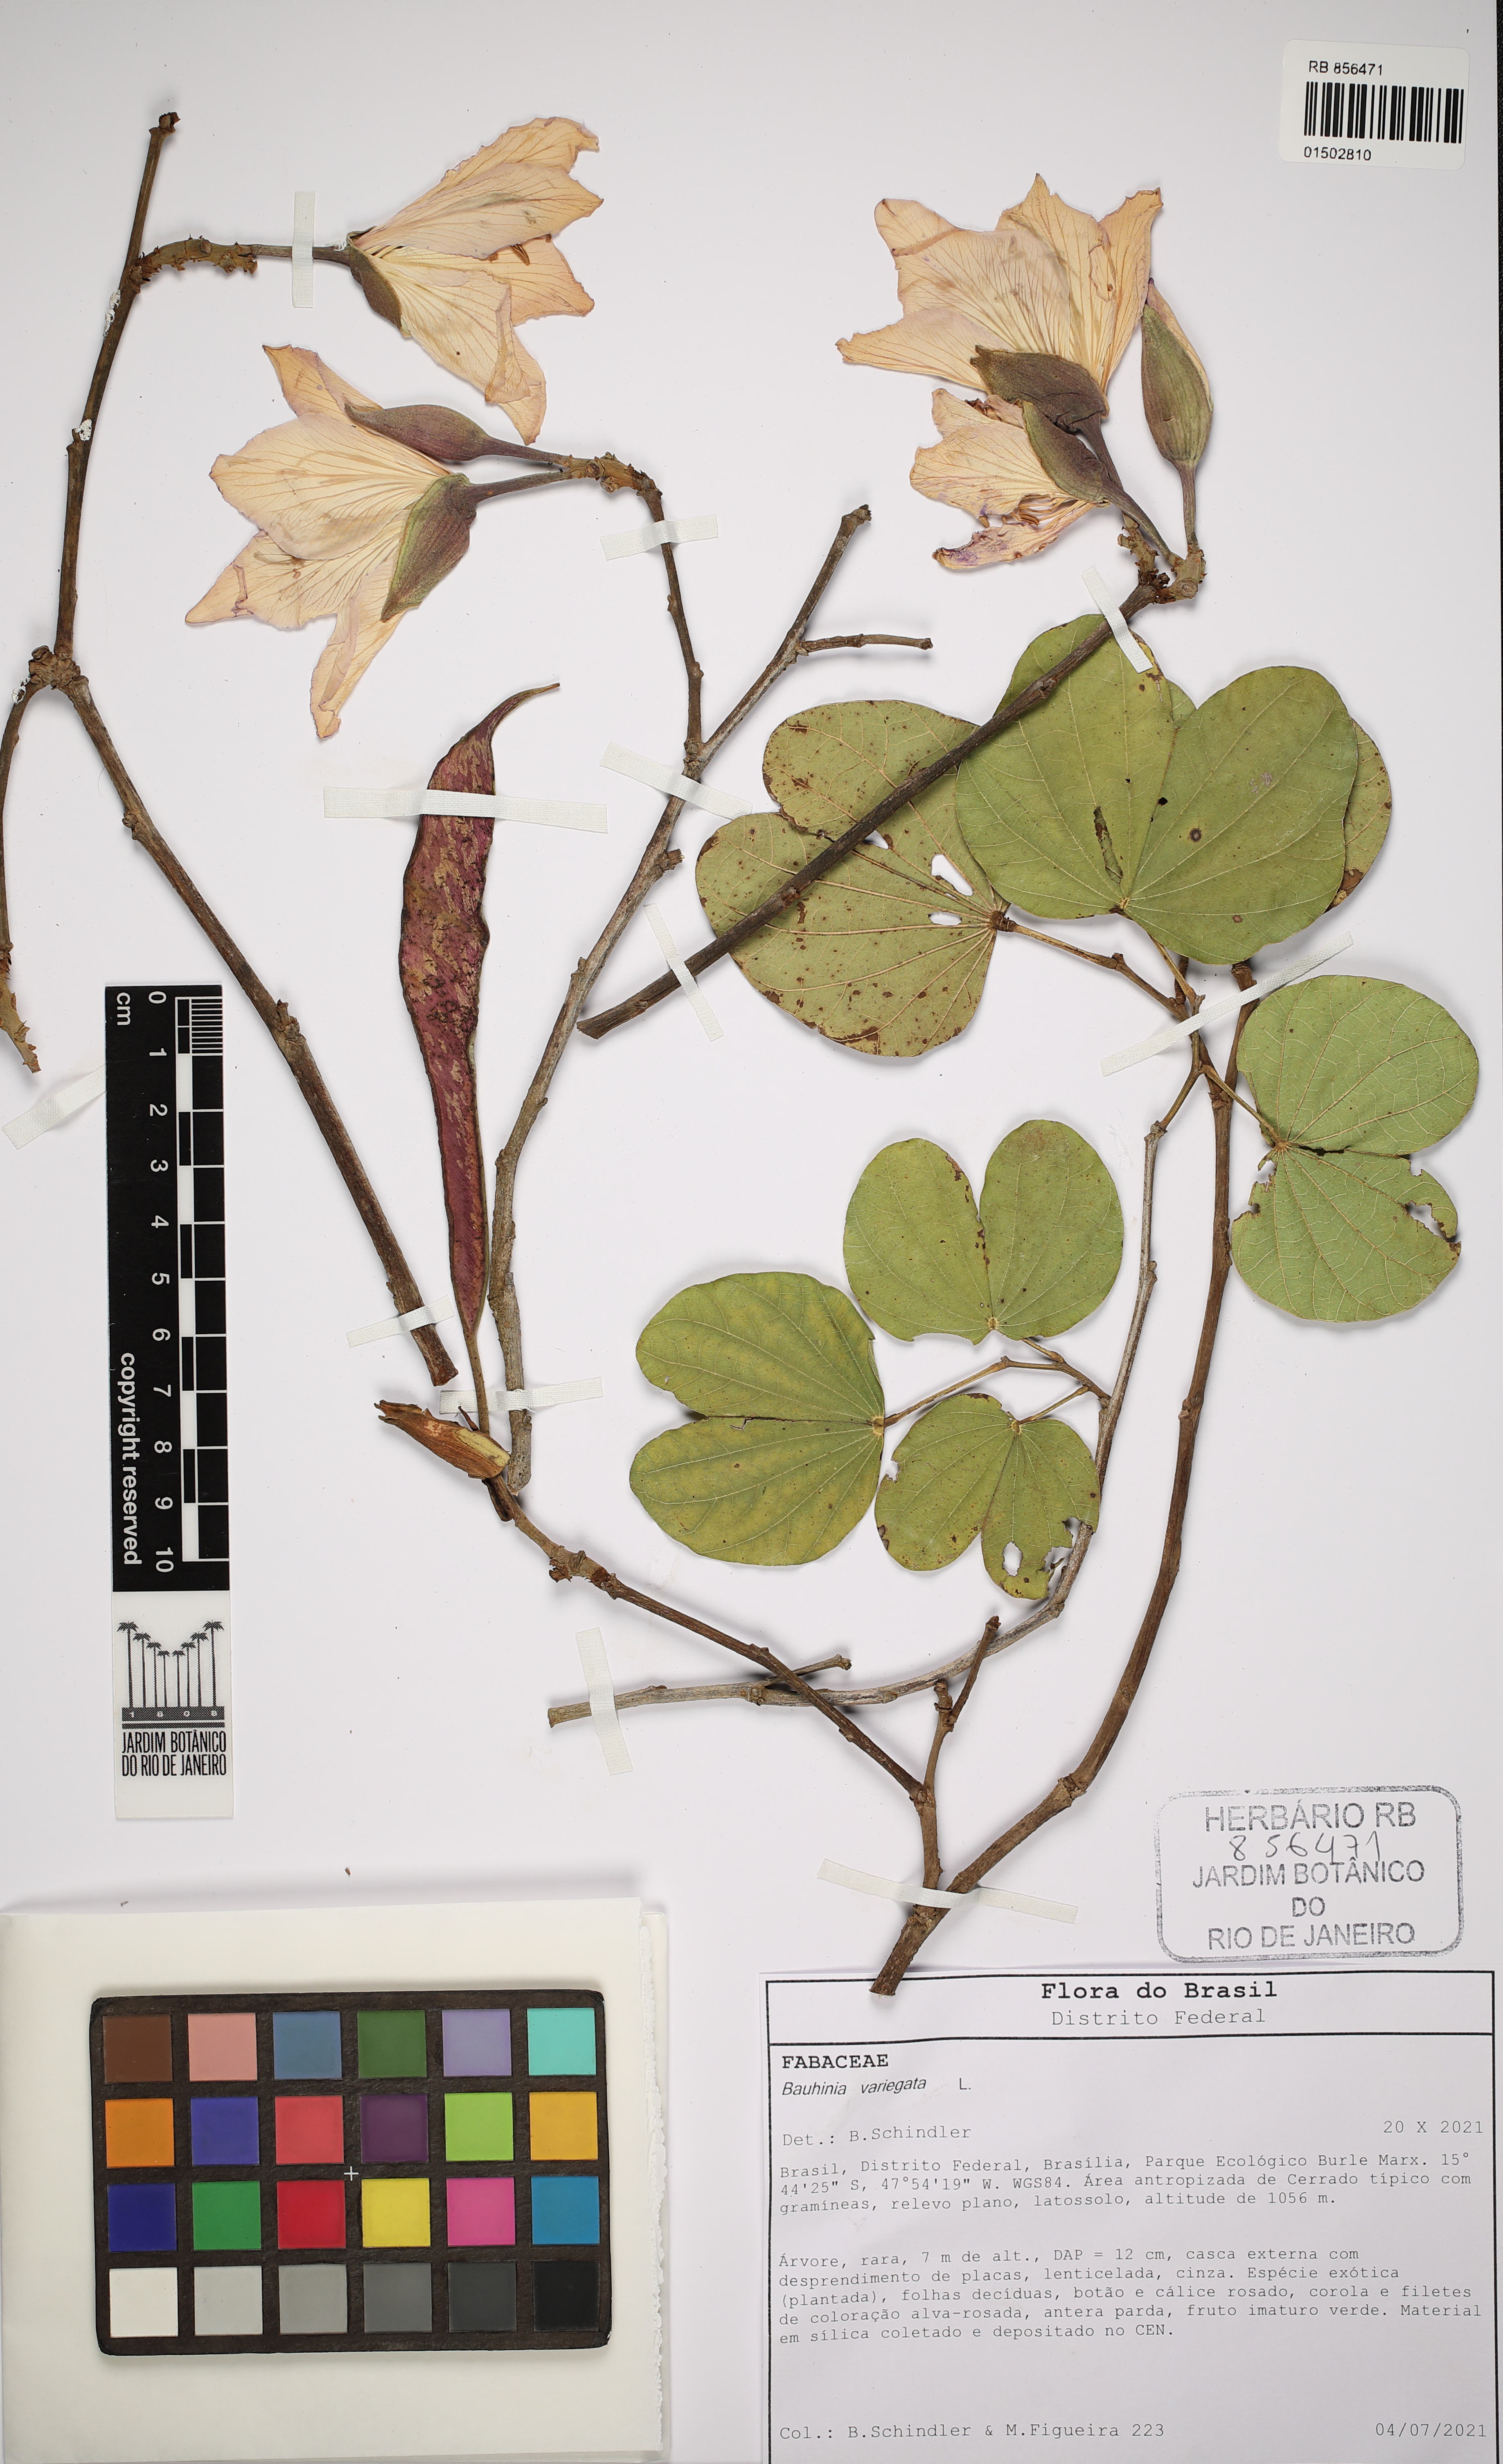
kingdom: Plantae
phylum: Tracheophyta
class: Magnoliopsida
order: Fabales
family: Fabaceae
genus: Bauhinia
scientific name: Bauhinia variegata
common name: Mountain ebony
